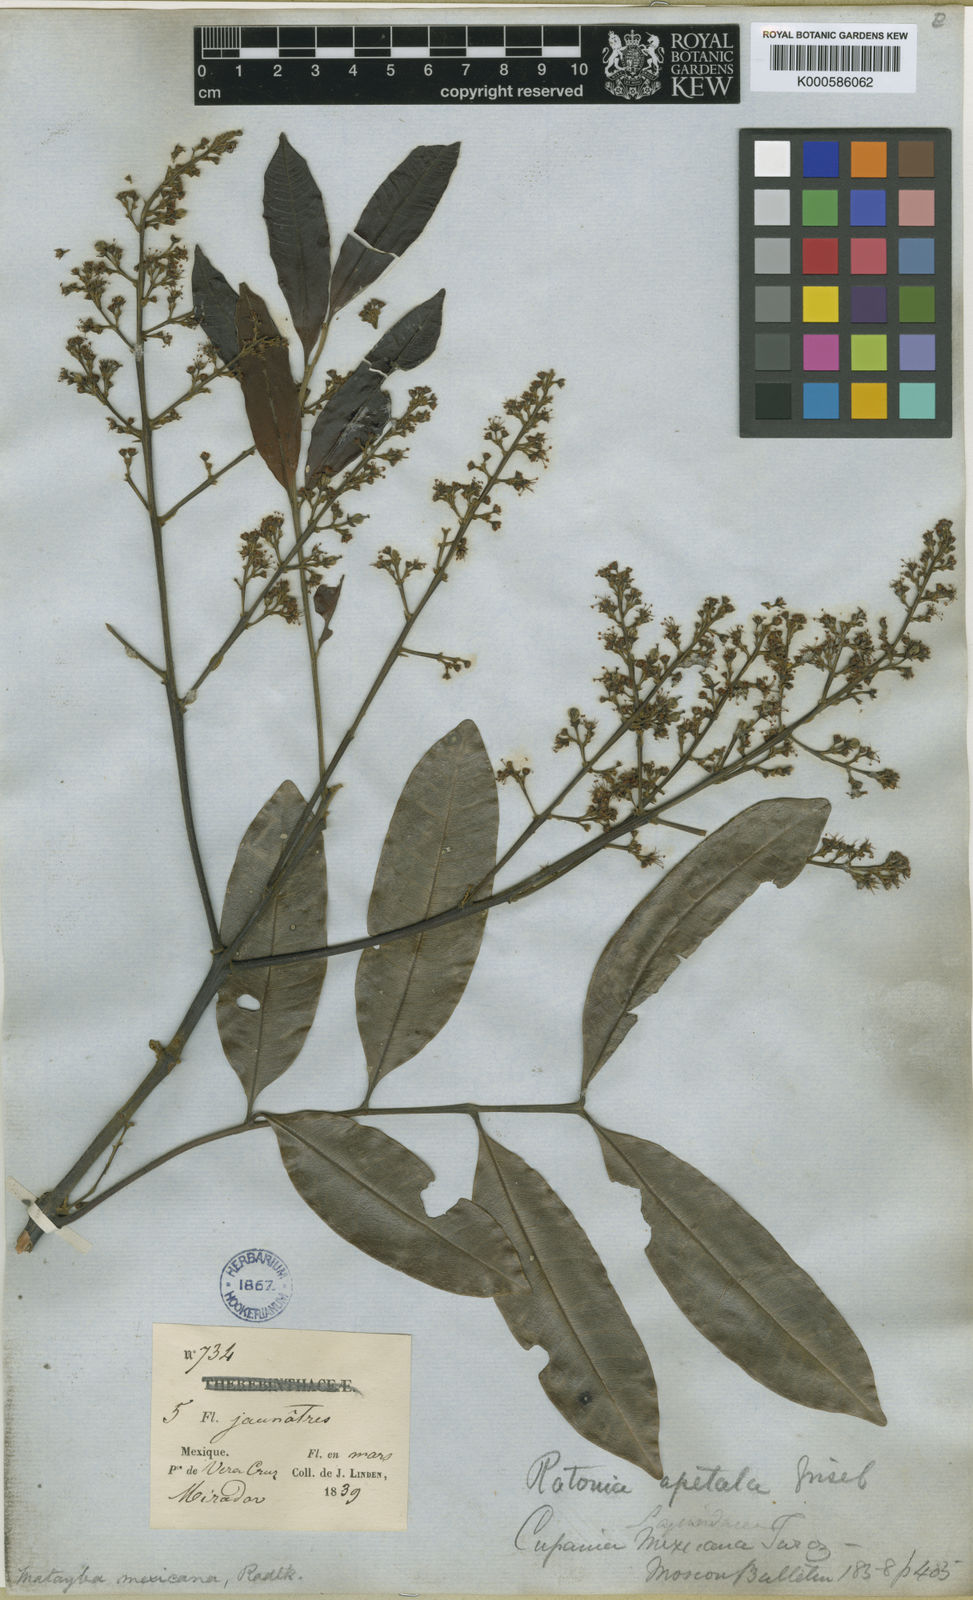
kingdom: Plantae
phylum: Tracheophyta
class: Magnoliopsida
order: Sapindales
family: Sapindaceae
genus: Matayba
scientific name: Matayba mexicana
